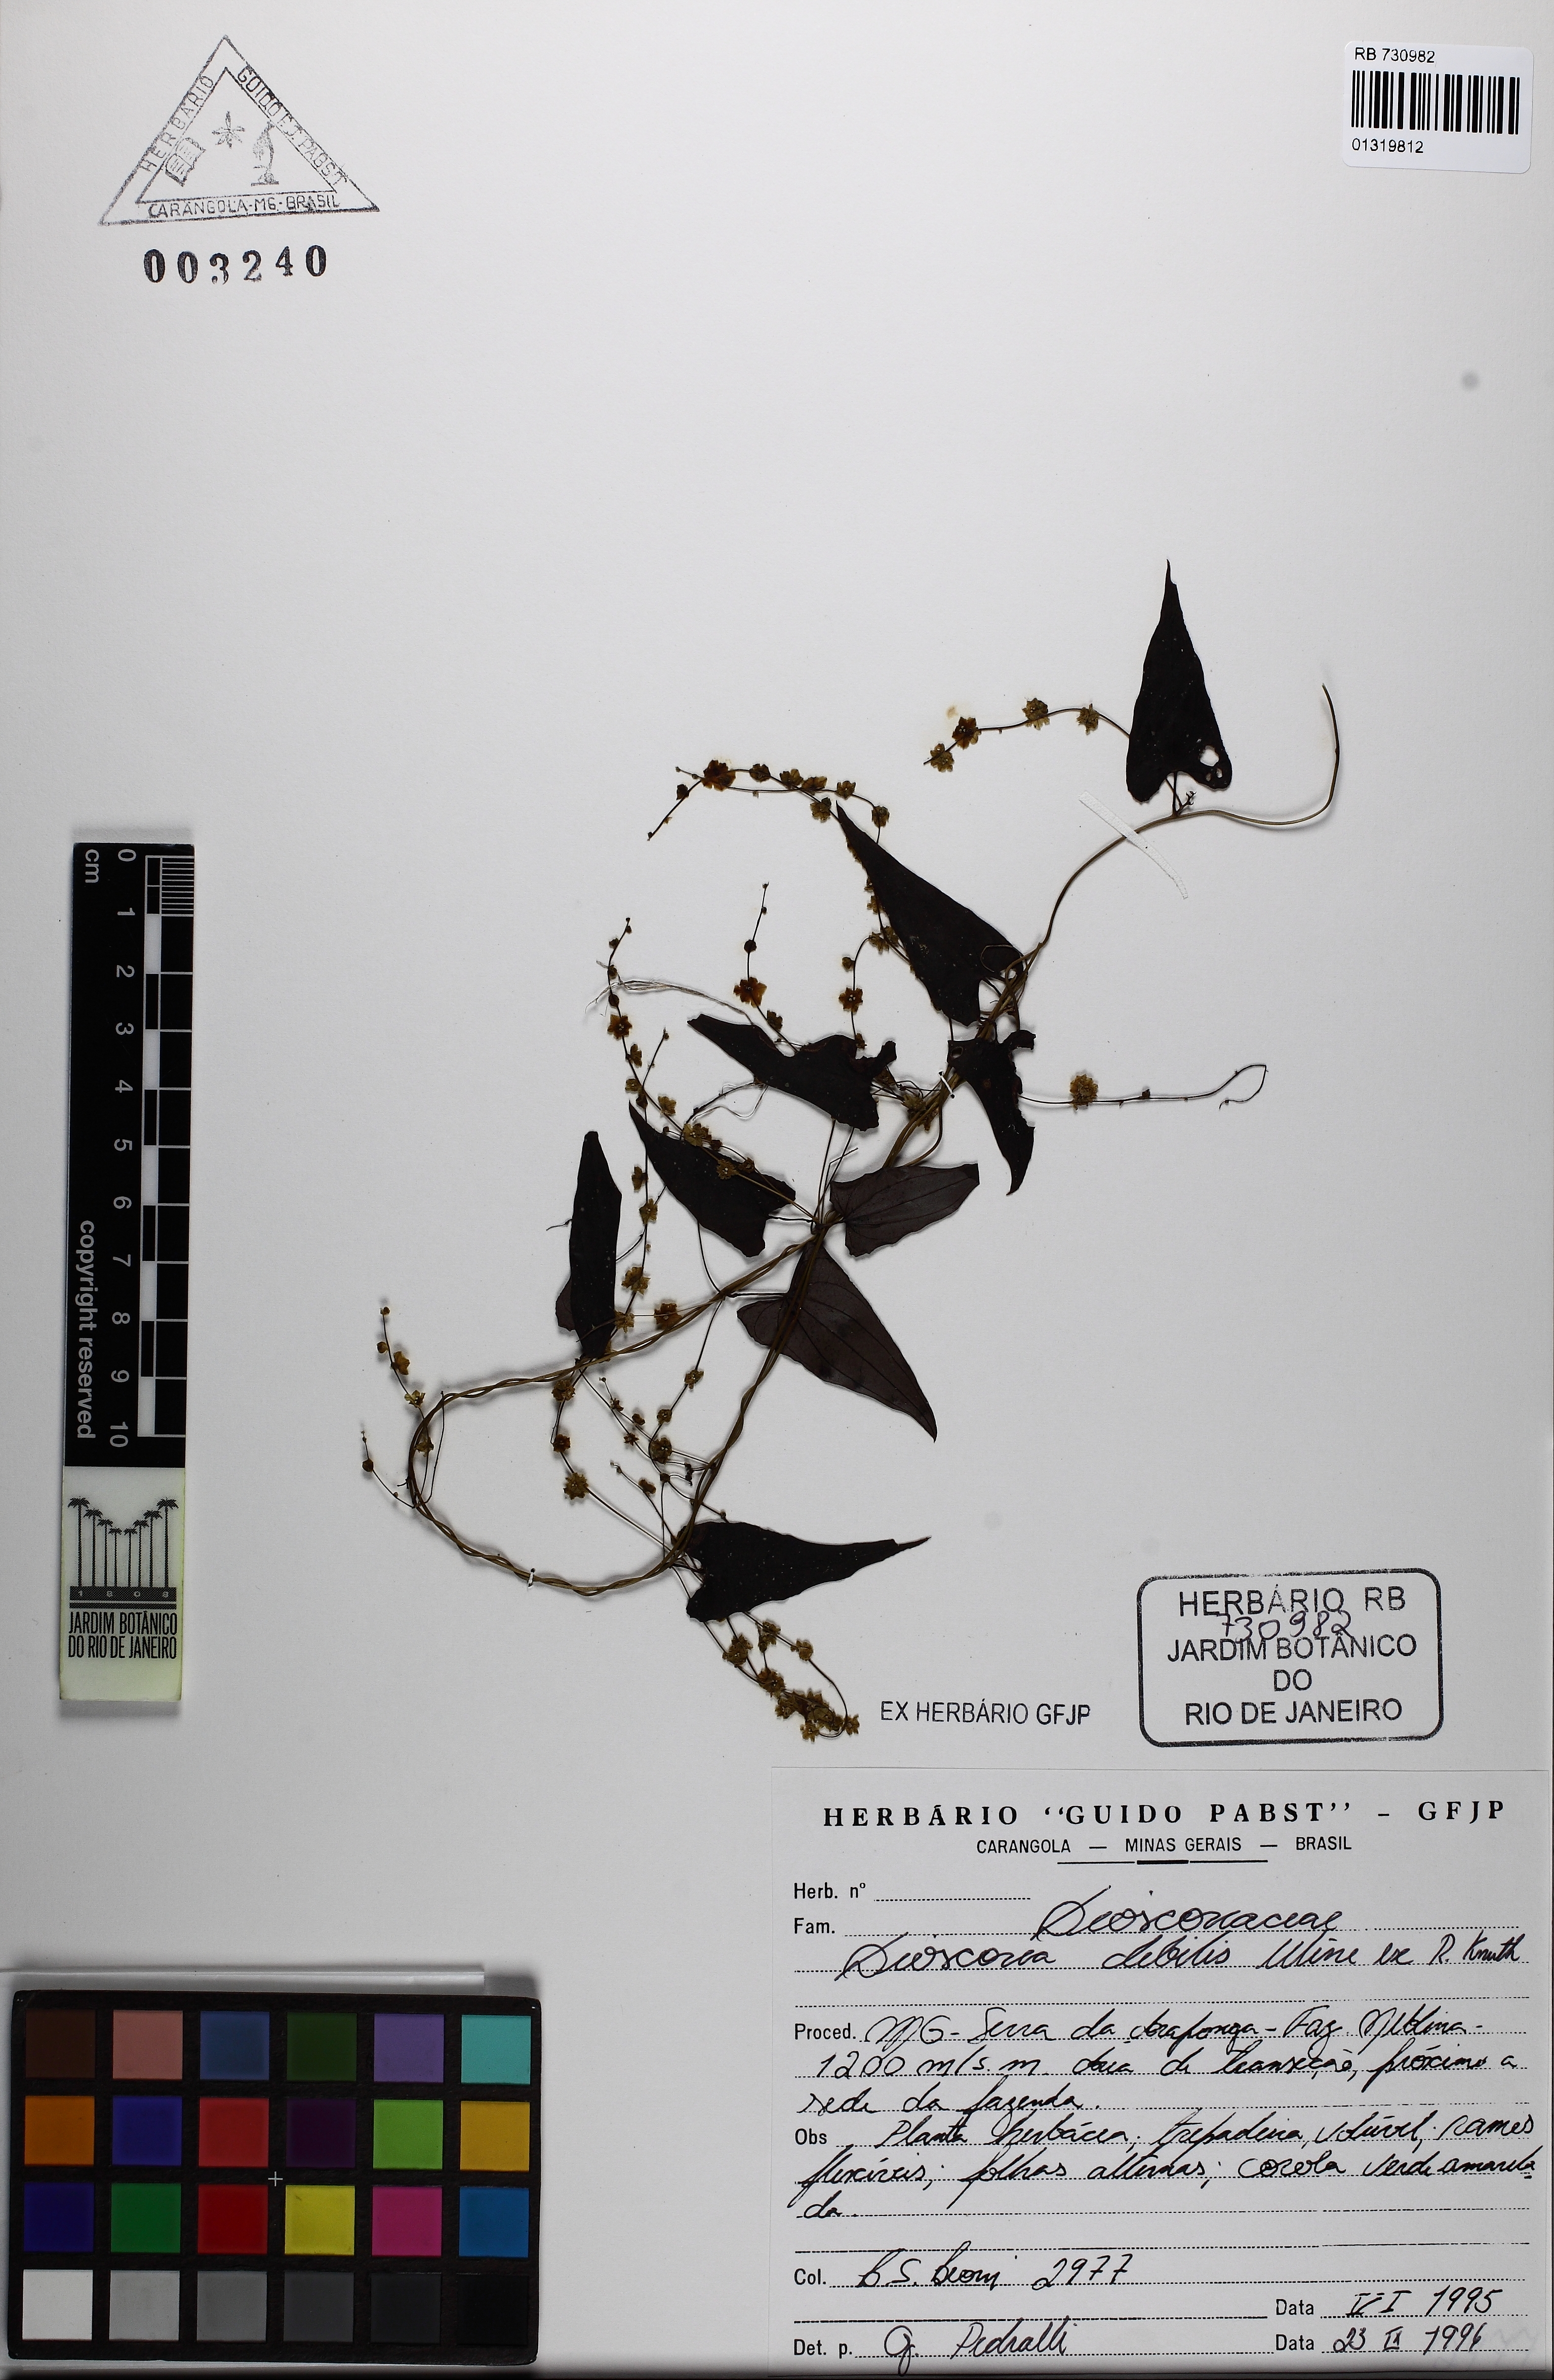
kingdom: Plantae
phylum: Tracheophyta
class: Liliopsida
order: Dioscoreales
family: Dioscoreaceae
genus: Dioscorea
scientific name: Dioscorea debilis
